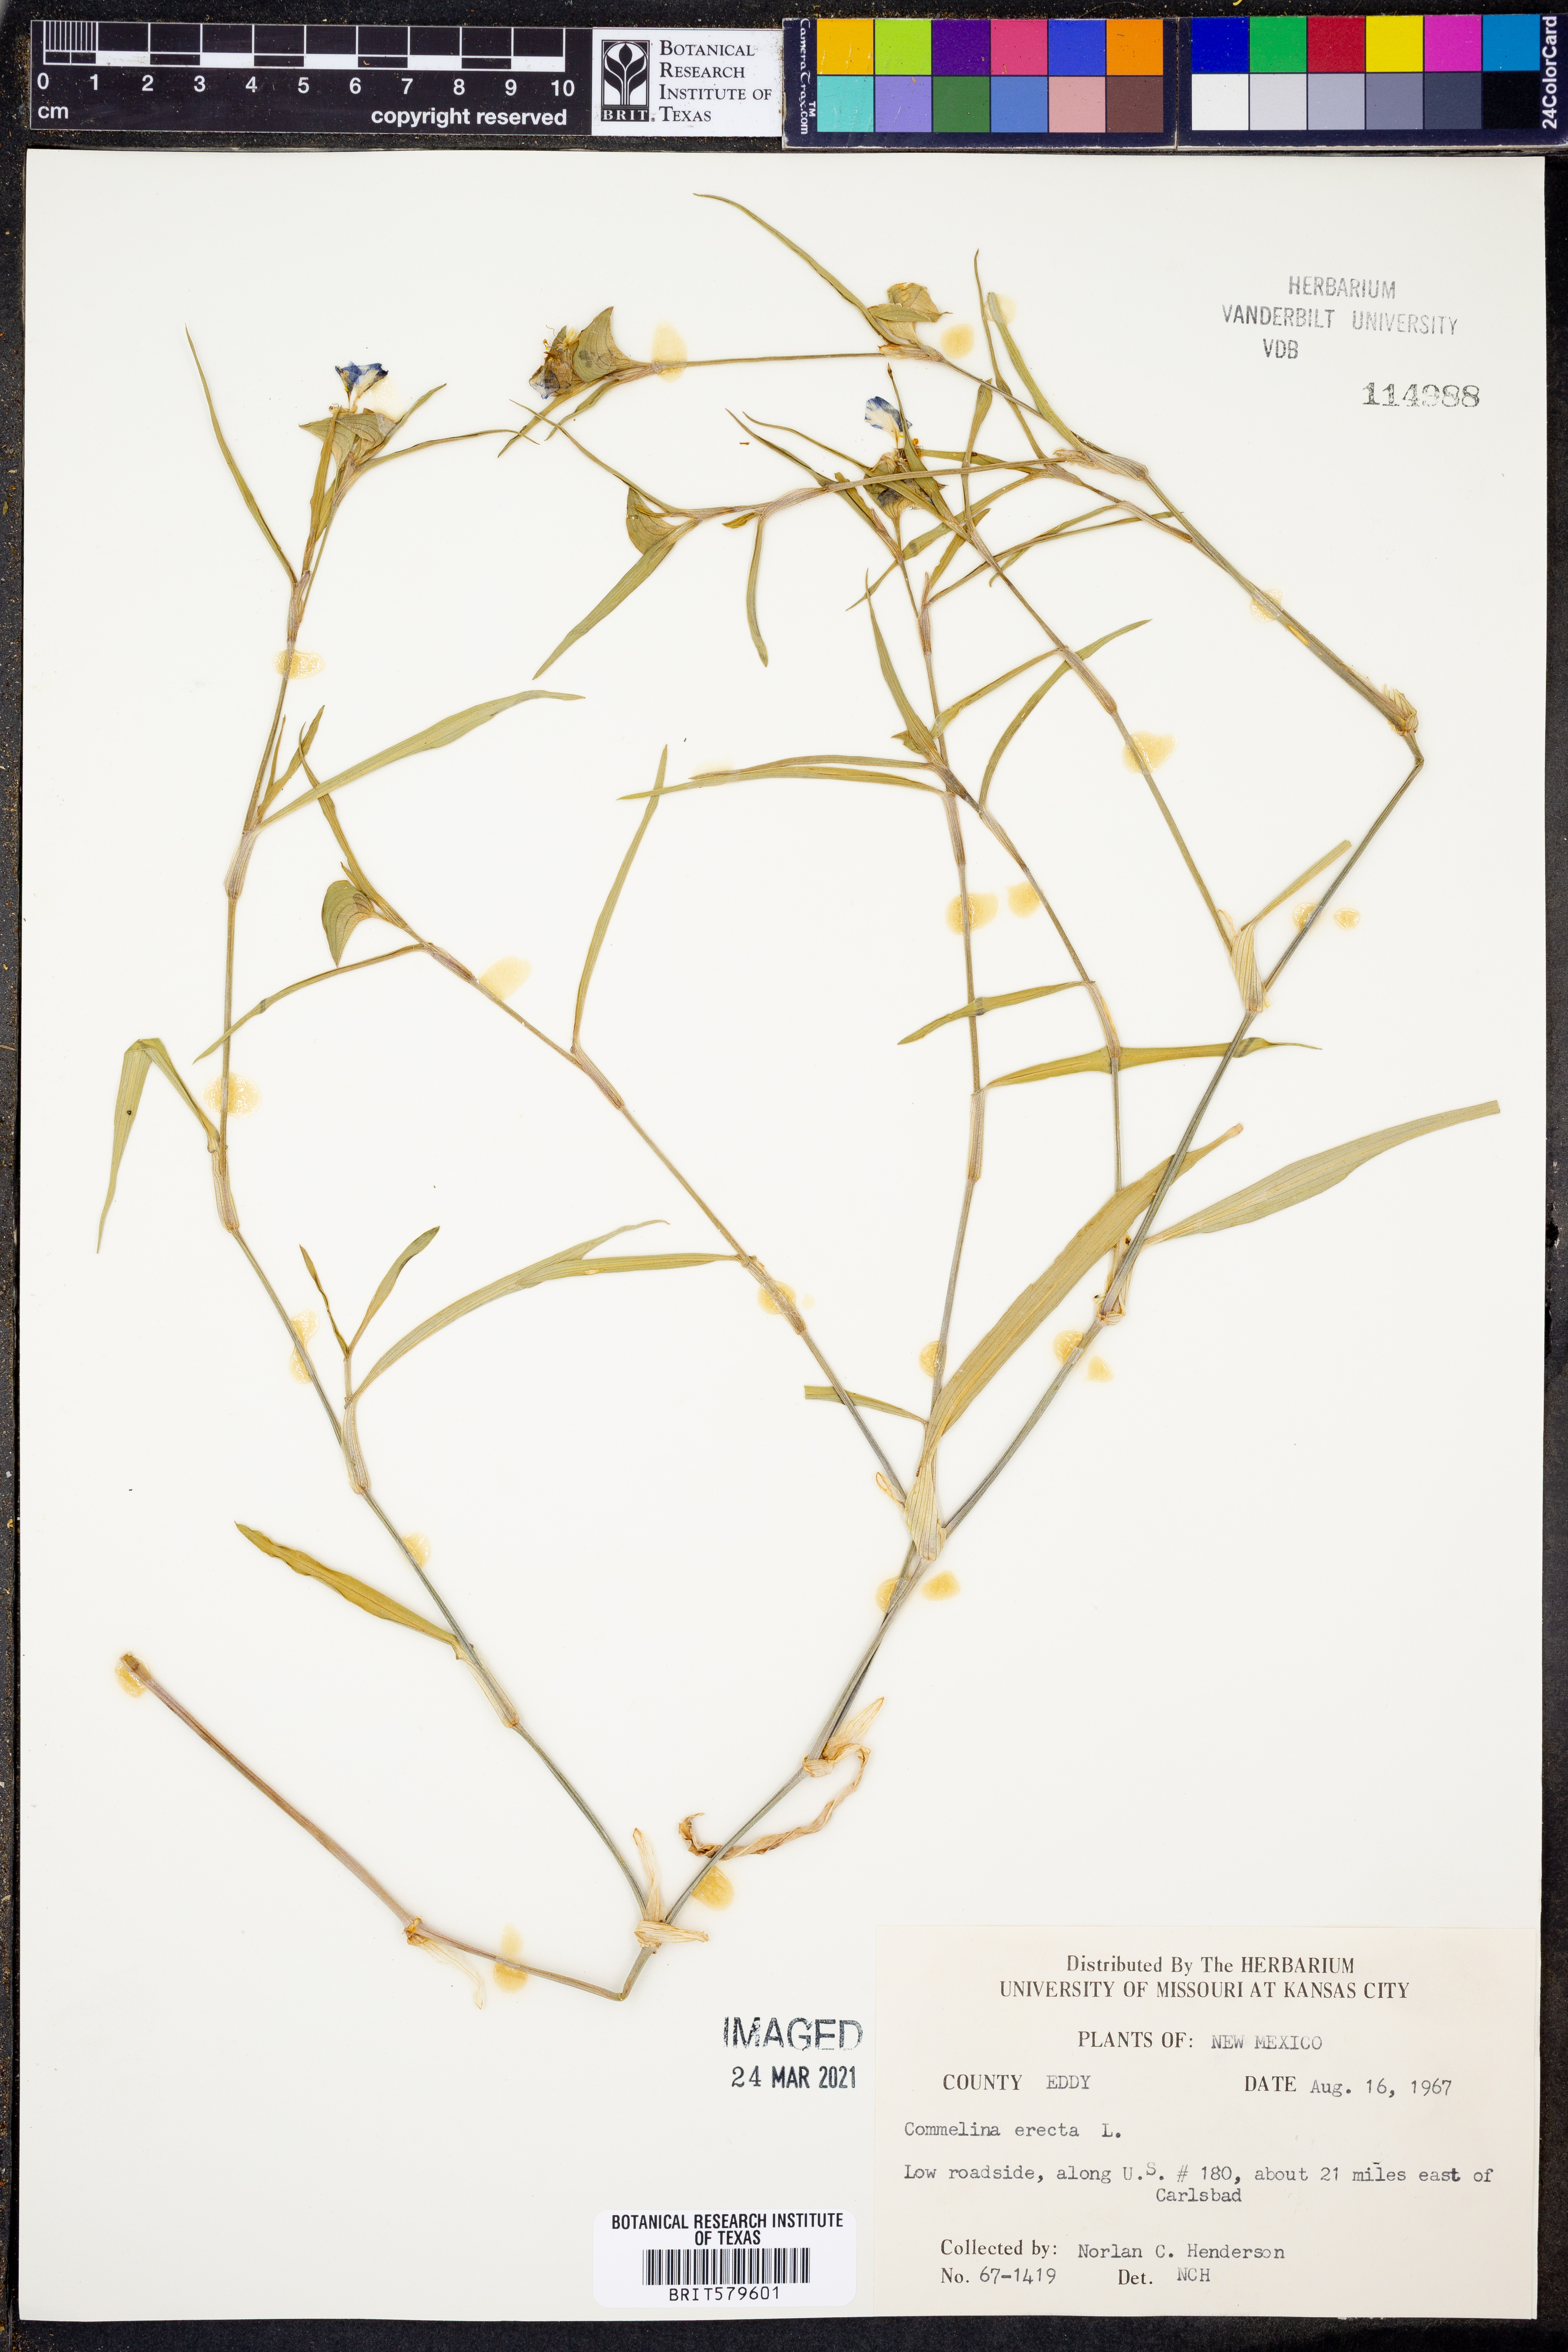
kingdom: Plantae
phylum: Tracheophyta
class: Liliopsida
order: Commelinales
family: Commelinaceae
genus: Commelina
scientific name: Commelina erecta
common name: Blousel blommetjie
